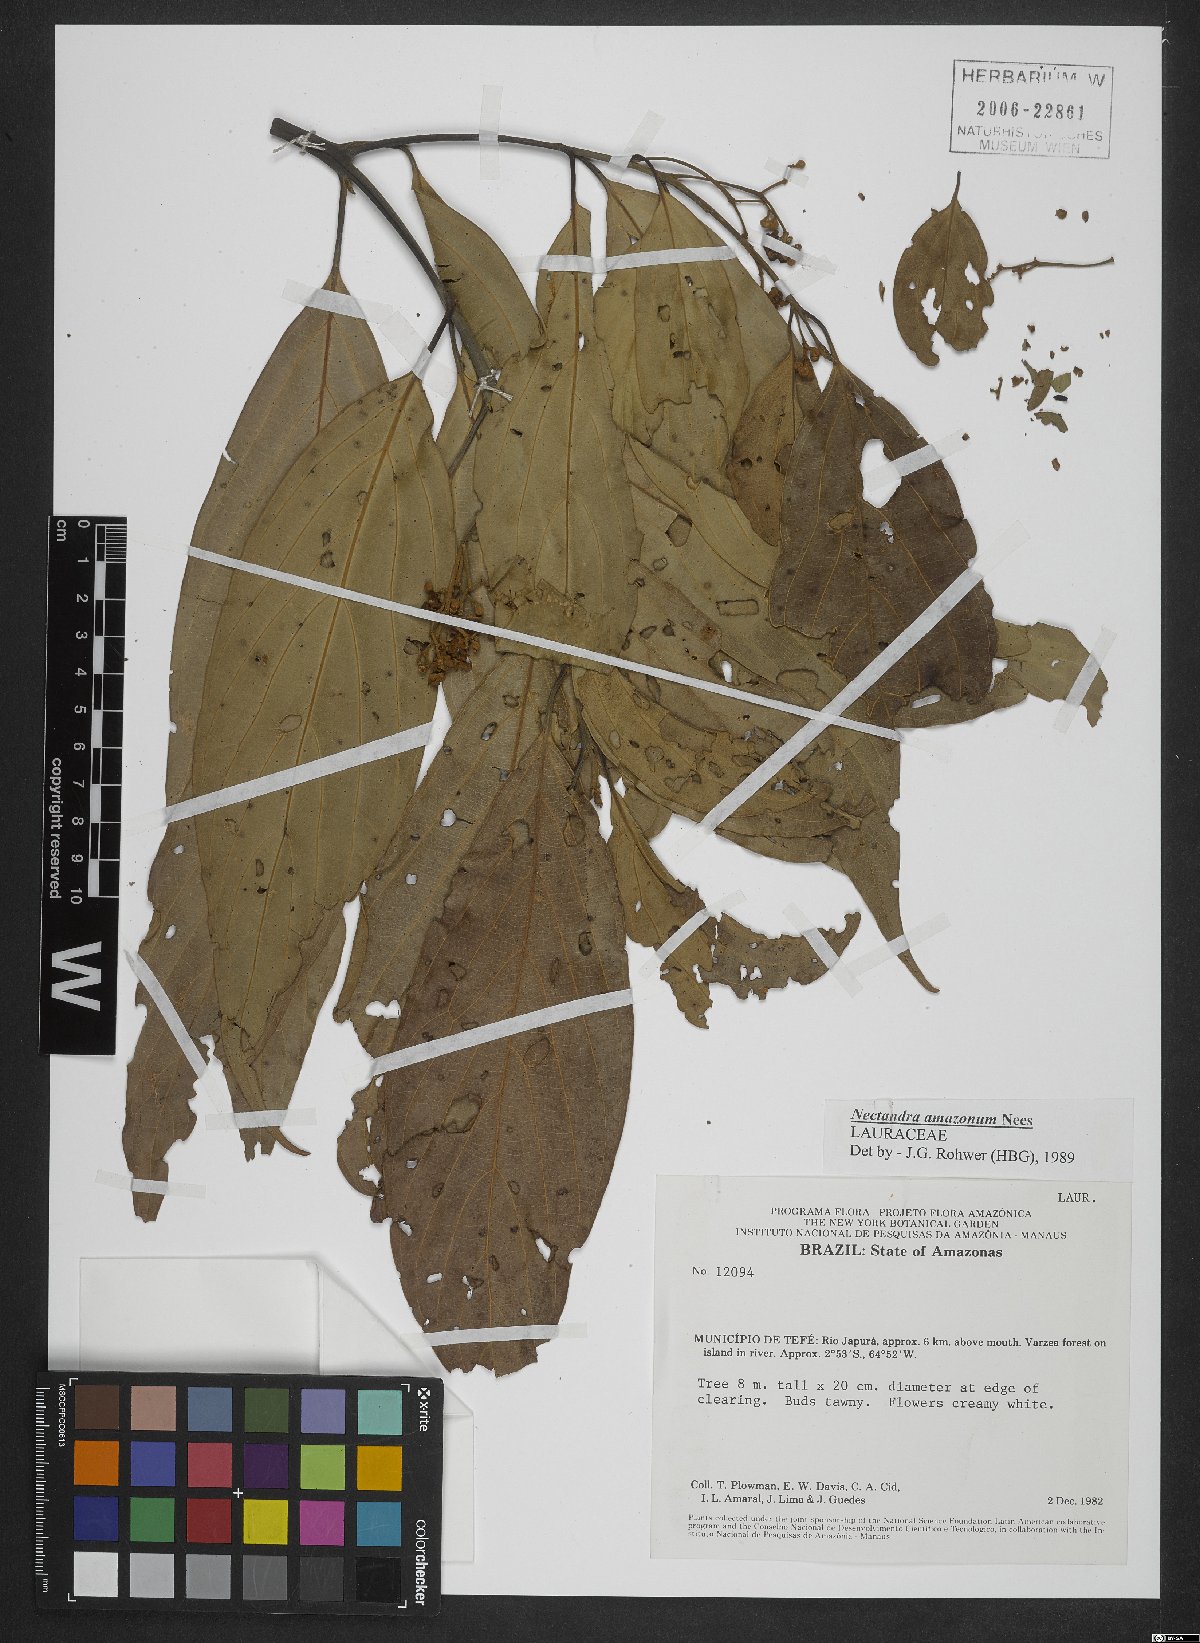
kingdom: Plantae
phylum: Tracheophyta
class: Magnoliopsida
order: Laurales
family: Lauraceae
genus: Nectandra
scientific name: Nectandra amazonum
